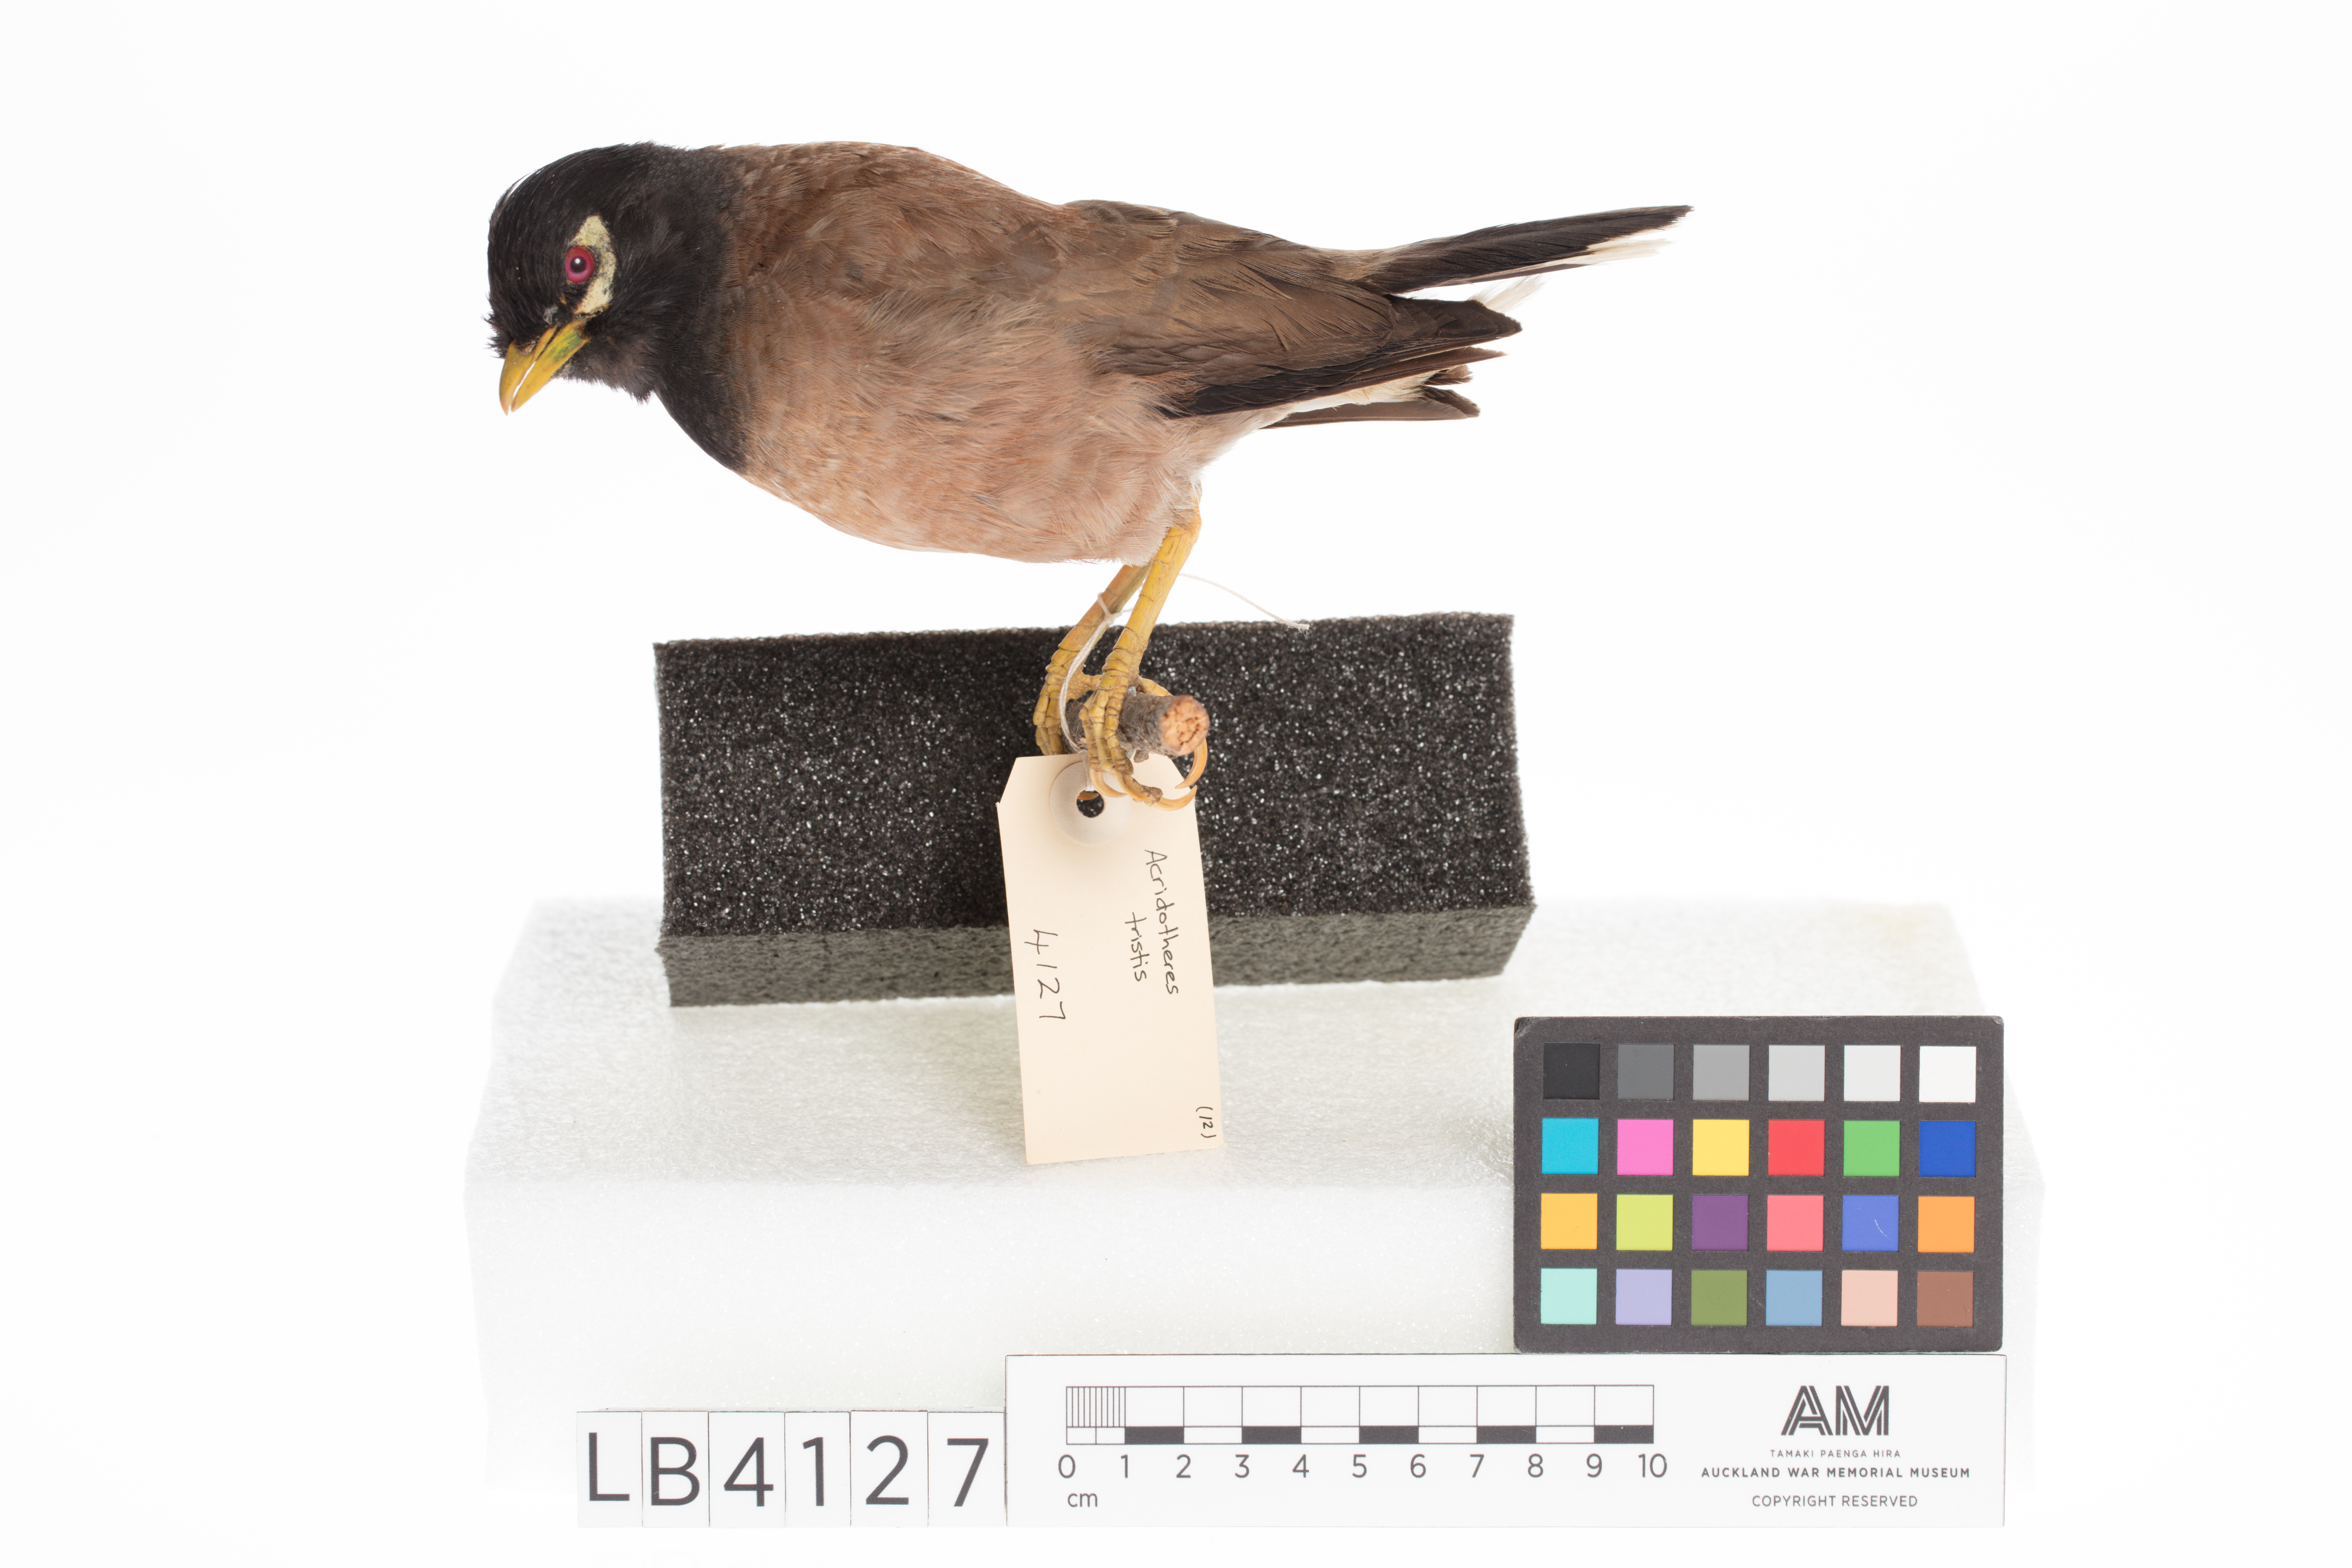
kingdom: Animalia
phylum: Chordata
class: Aves
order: Passeriformes
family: Sturnidae
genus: Acridotheres
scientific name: Acridotheres tristis
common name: Common myna
